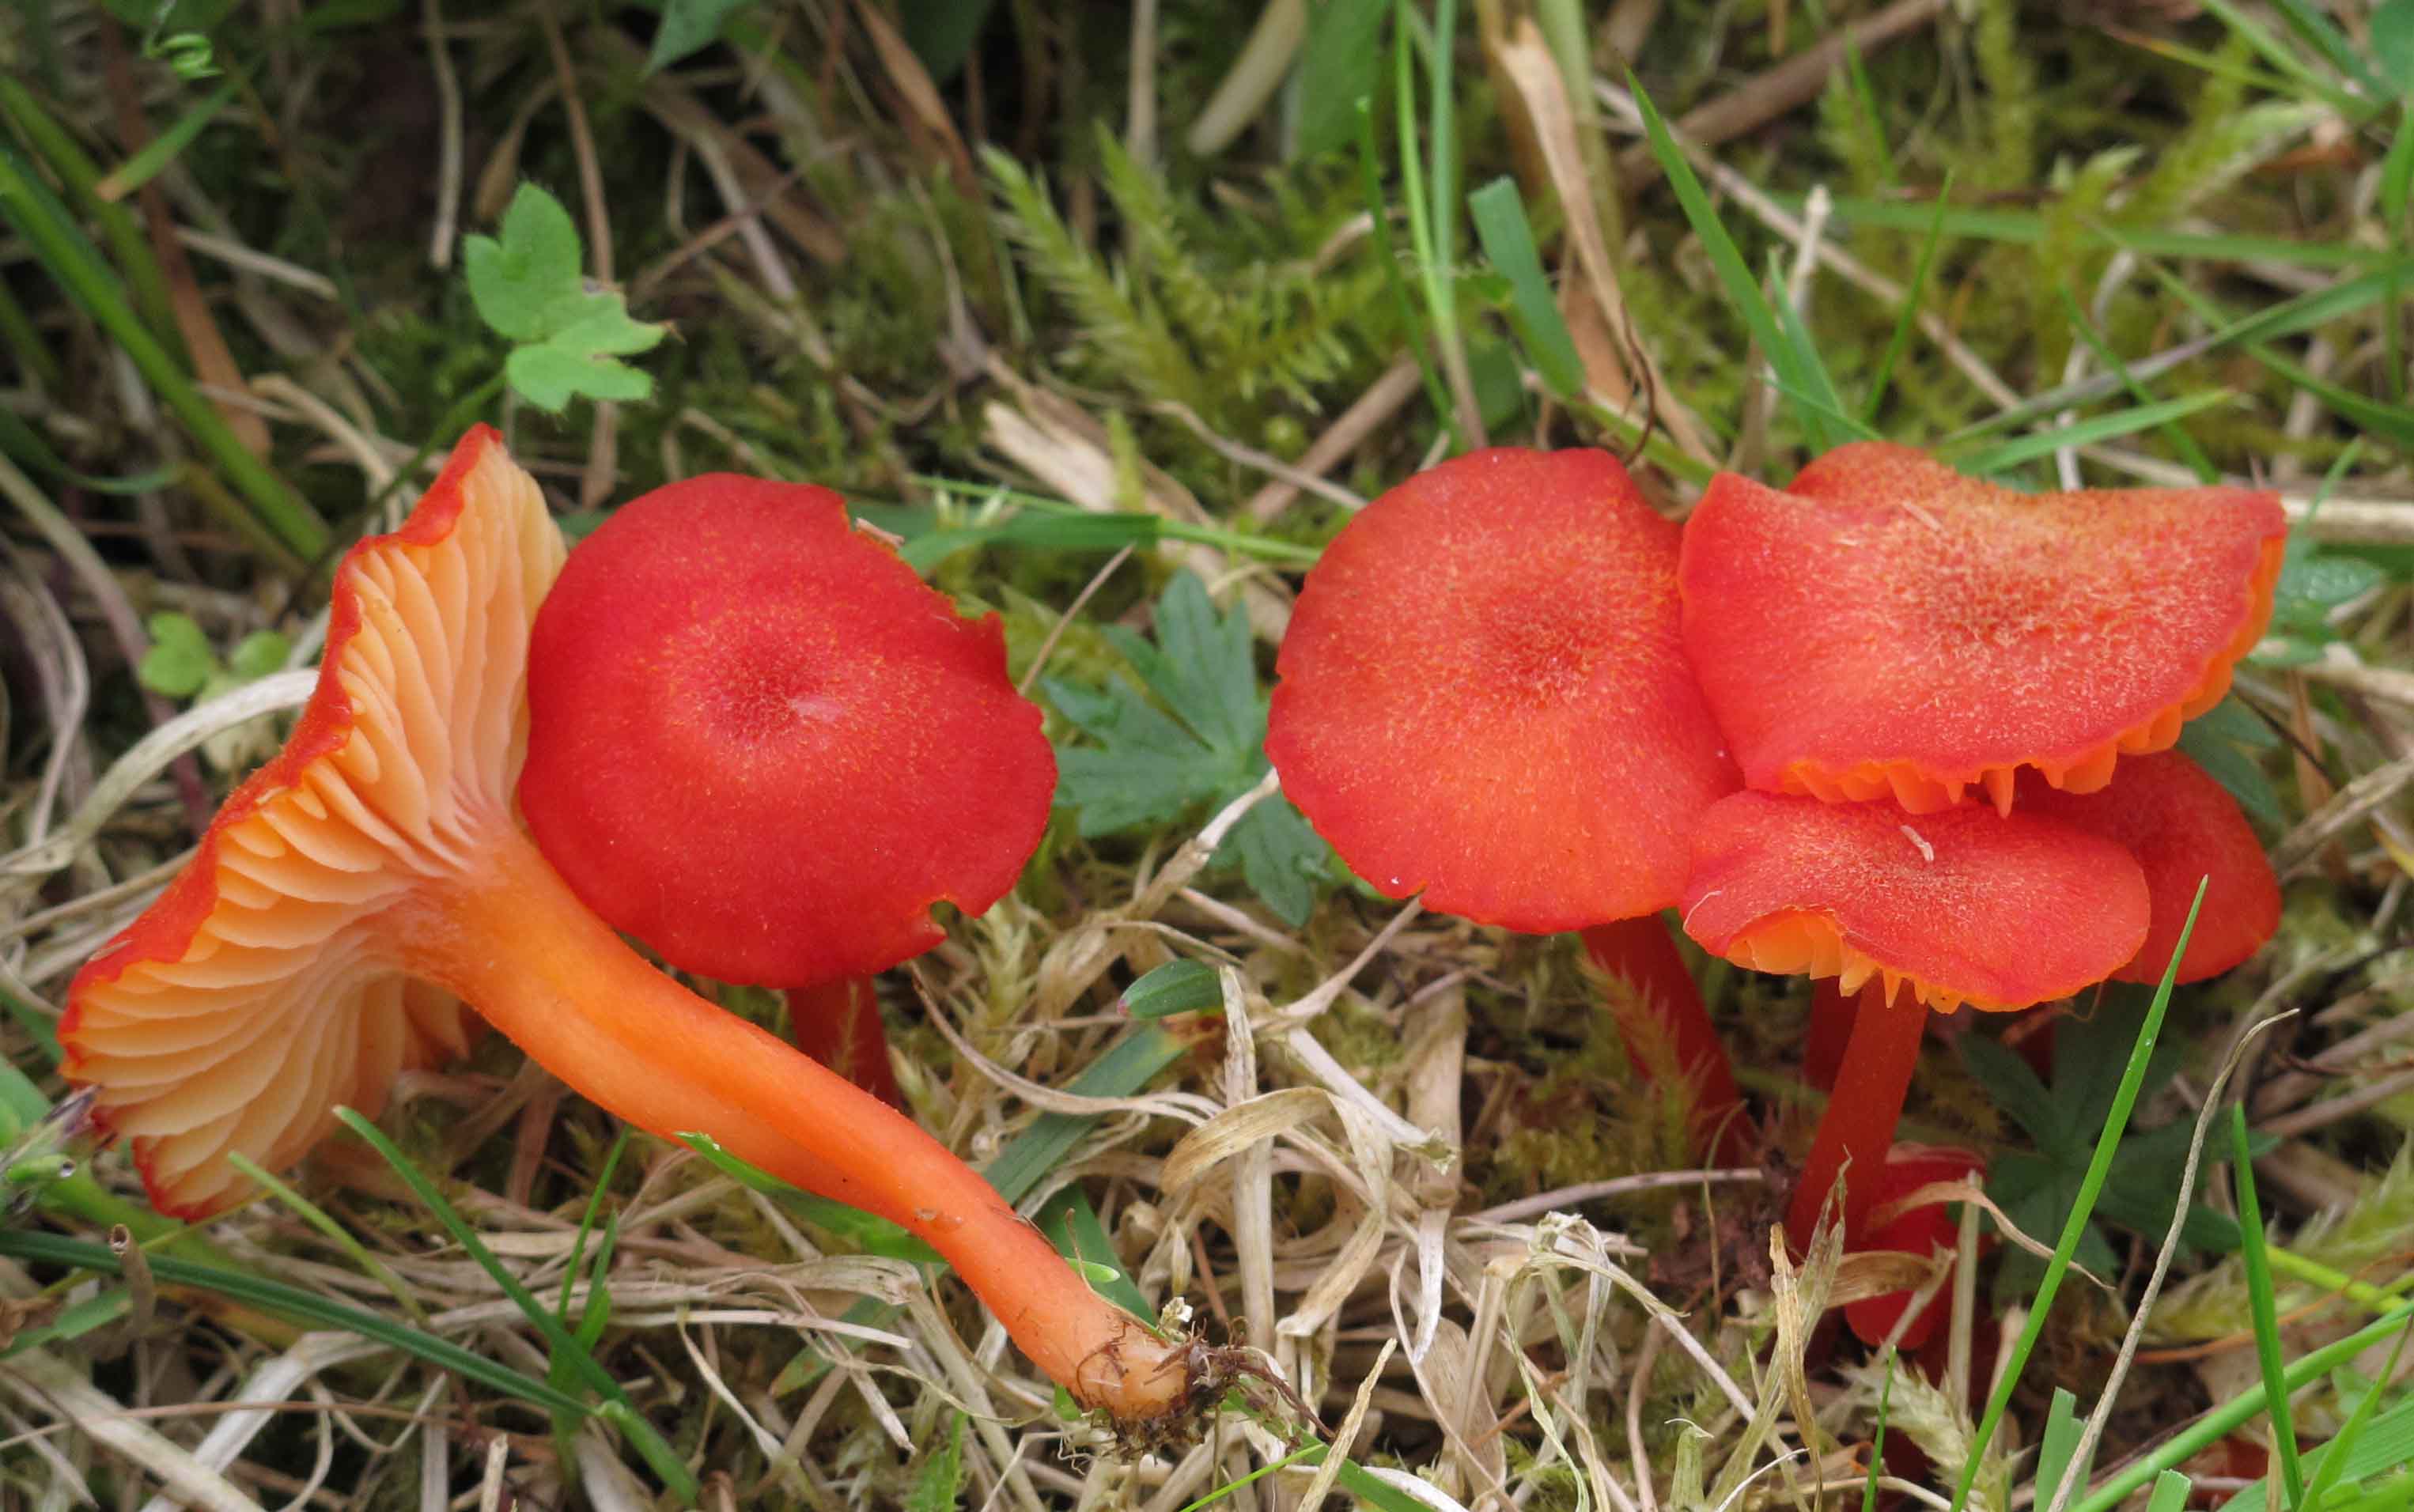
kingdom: Fungi
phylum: Basidiomycota
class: Agaricomycetes
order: Agaricales
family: Hygrophoraceae
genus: Hygrocybe
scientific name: Hygrocybe helobia
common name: hvidløgs-vokshat
